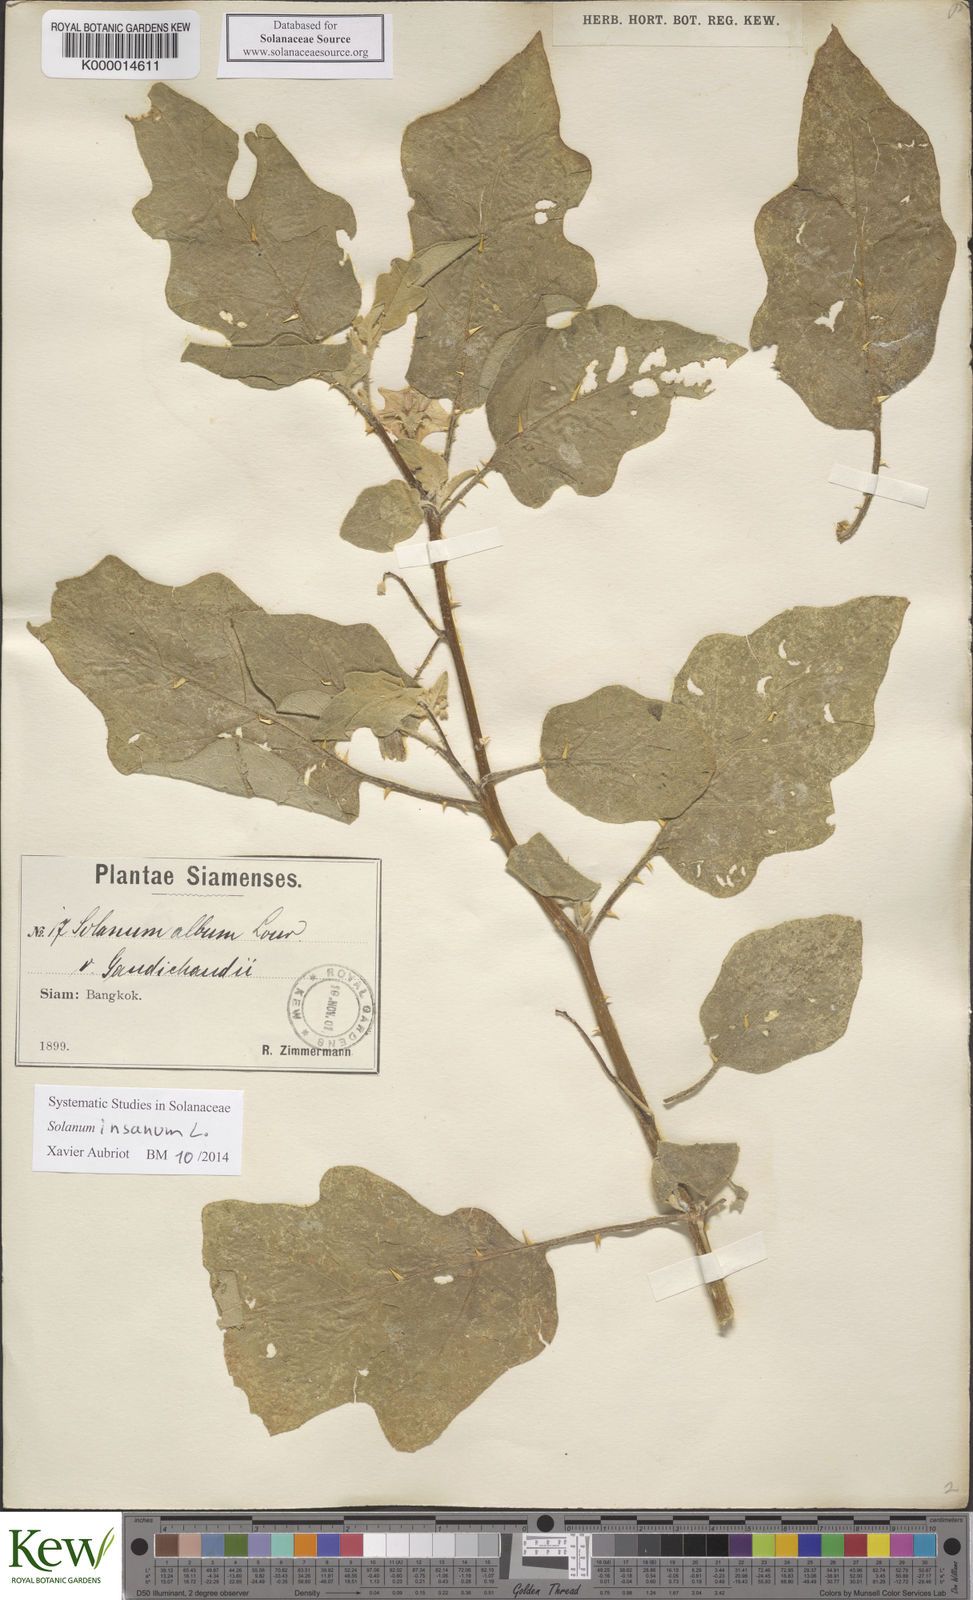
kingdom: Plantae
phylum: Tracheophyta
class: Magnoliopsida
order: Solanales
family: Solanaceae
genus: Solanum
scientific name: Solanum melongena
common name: Eggplant
